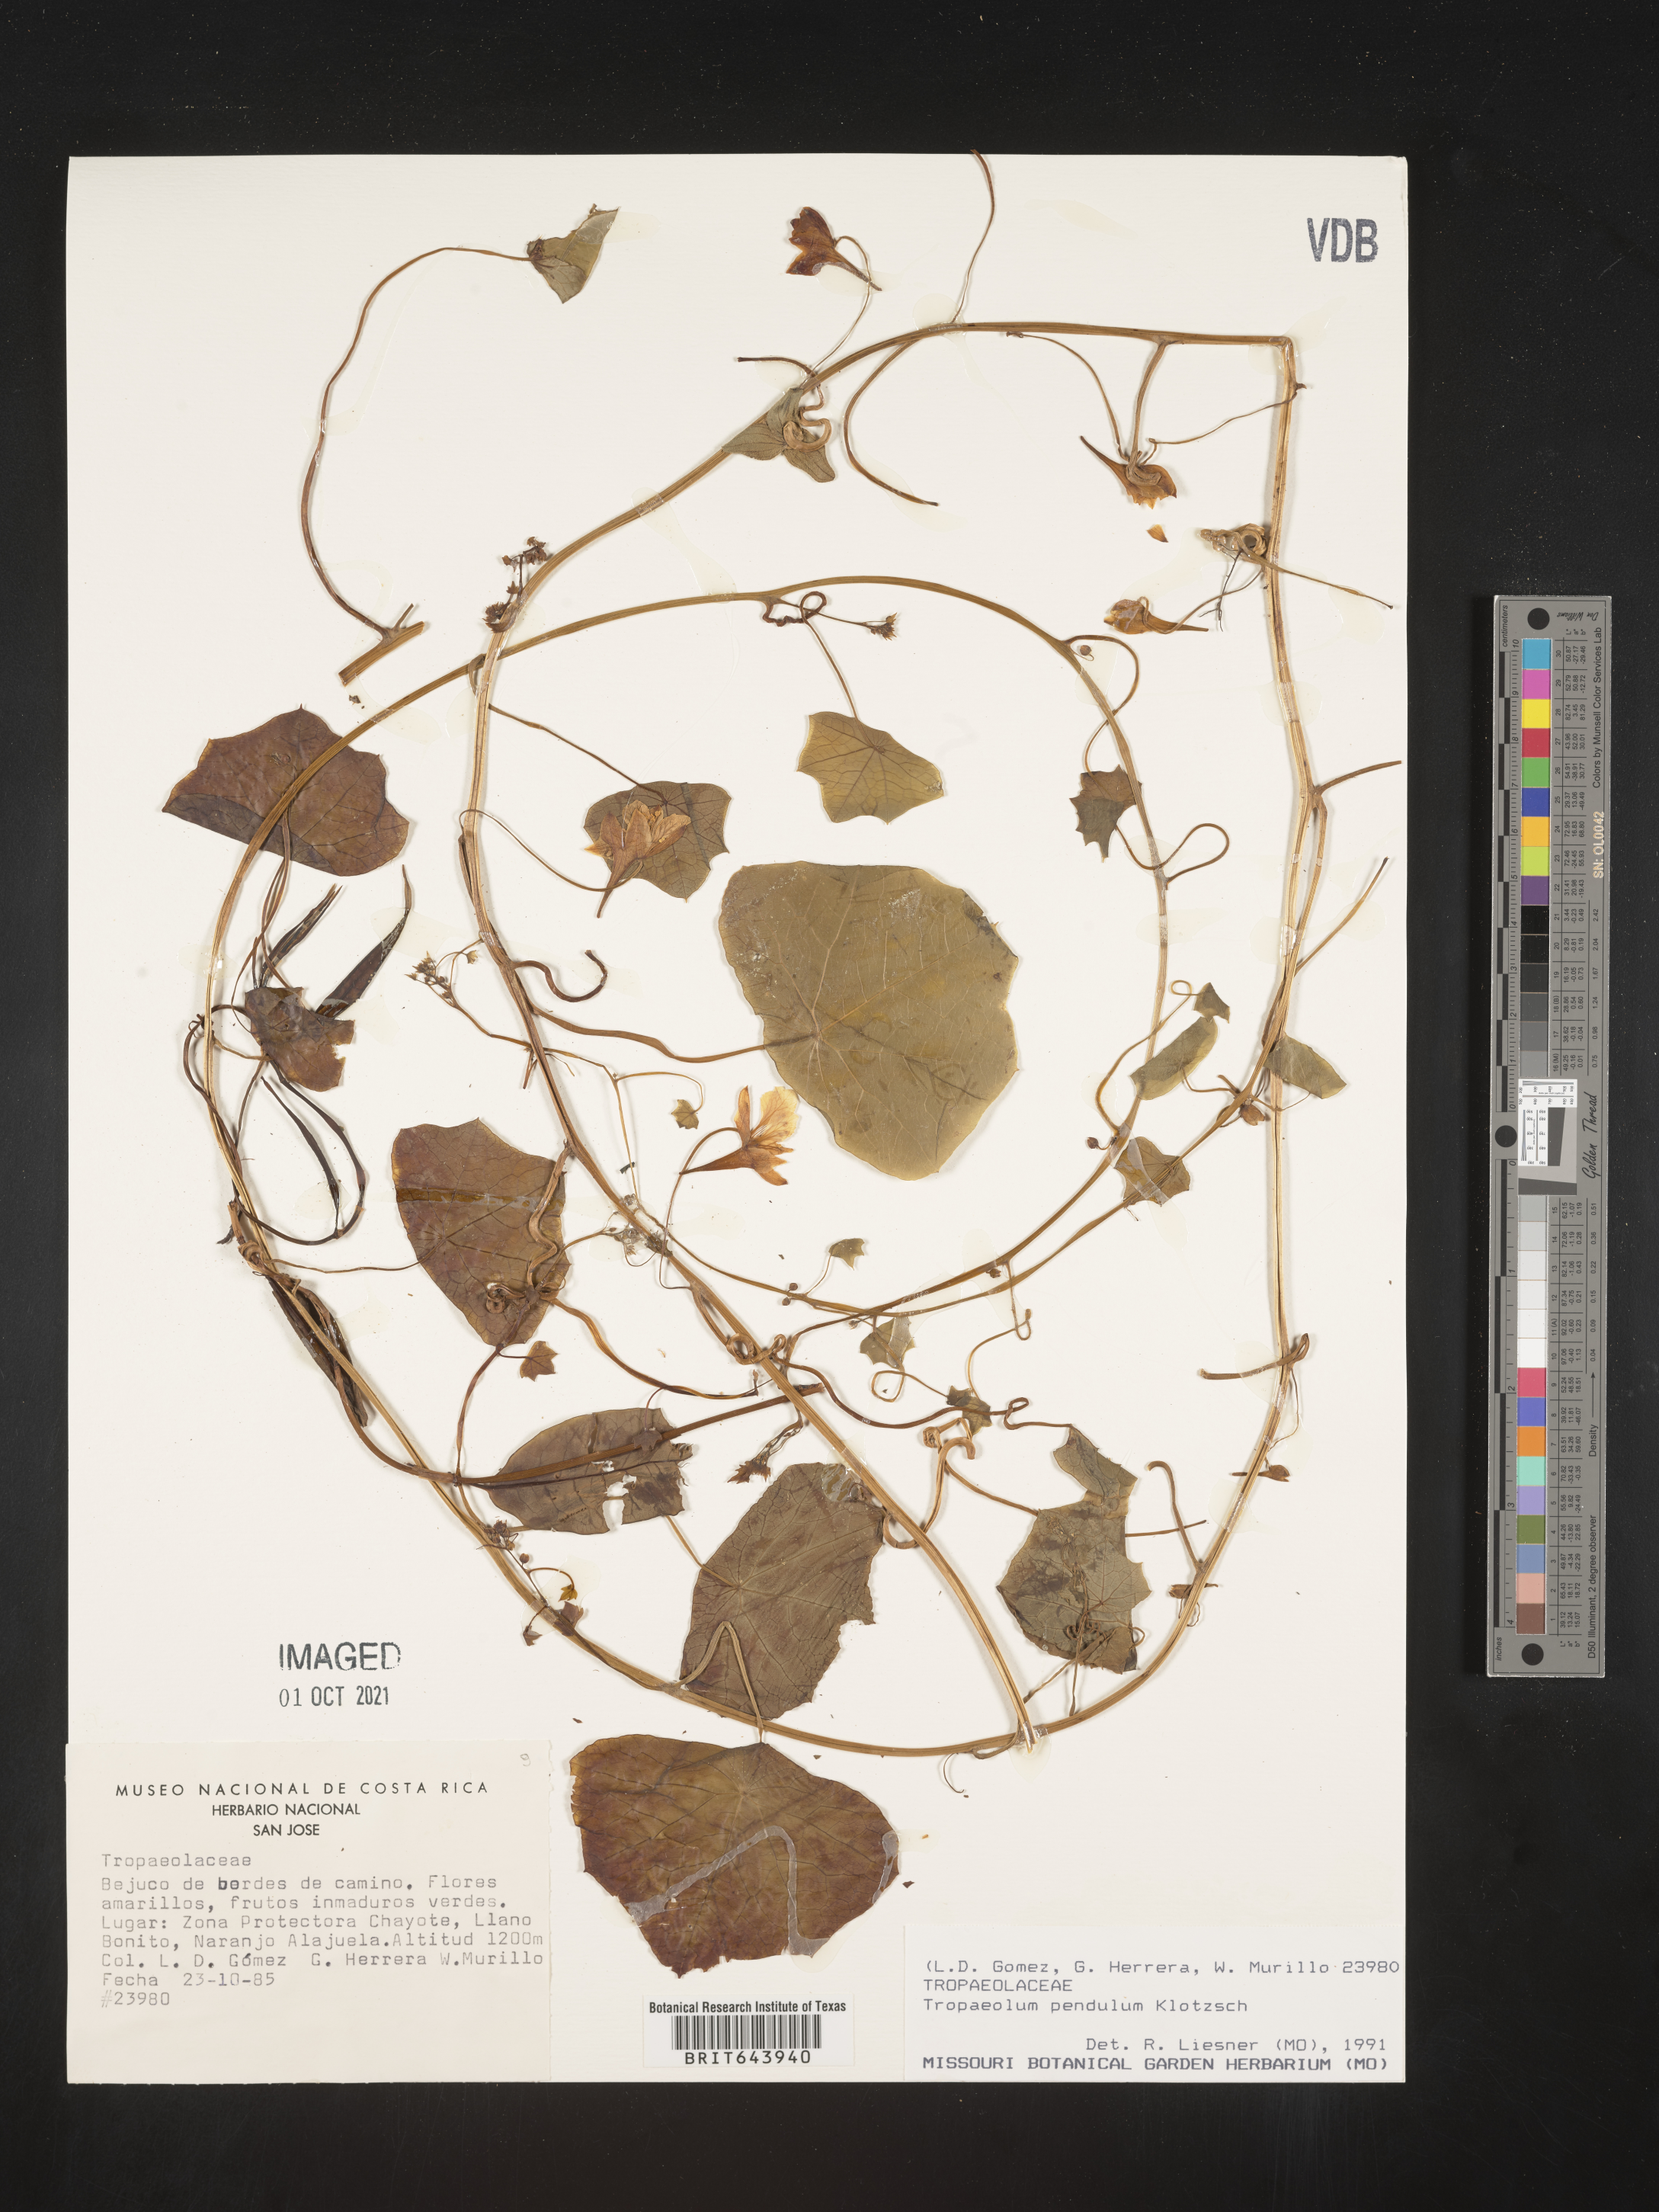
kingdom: Plantae
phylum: Tracheophyta
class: Magnoliopsida
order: Brassicales
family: Tropaeolaceae
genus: Tropaeolum
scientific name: Tropaeolum
